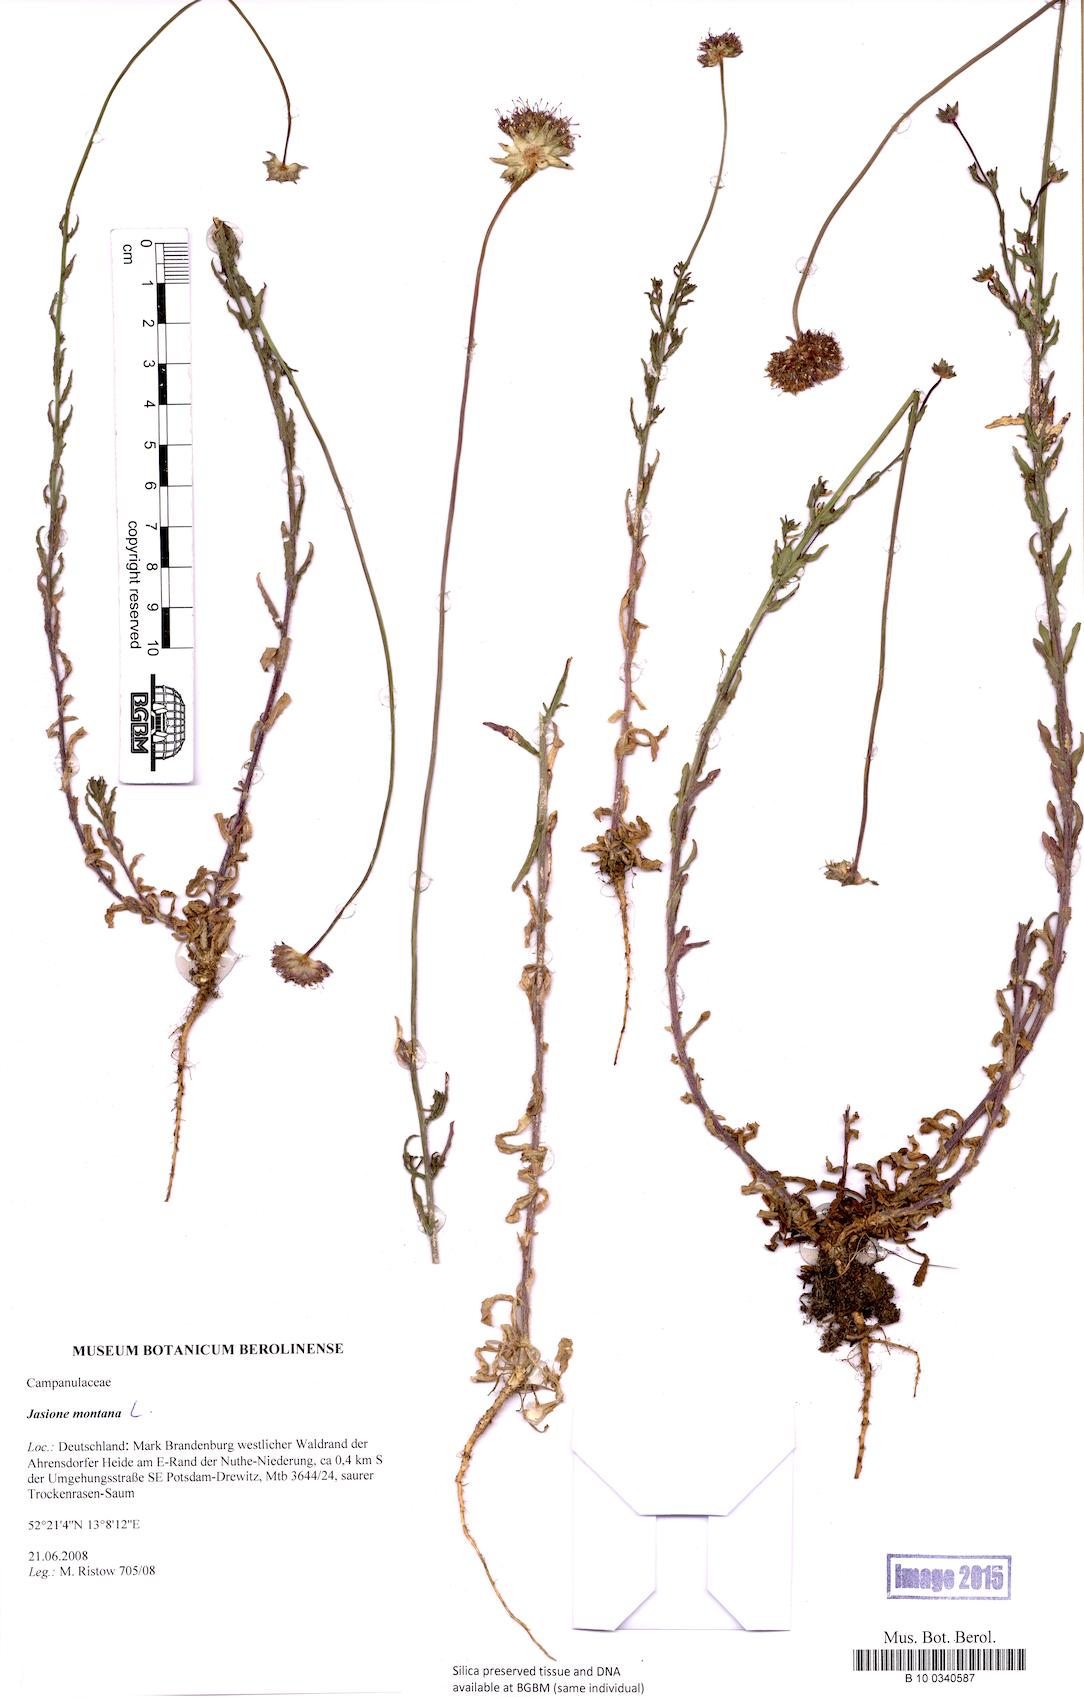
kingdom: Plantae
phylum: Tracheophyta
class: Magnoliopsida
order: Asterales
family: Campanulaceae
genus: Jasione
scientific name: Jasione montana
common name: Sheep's-bit
